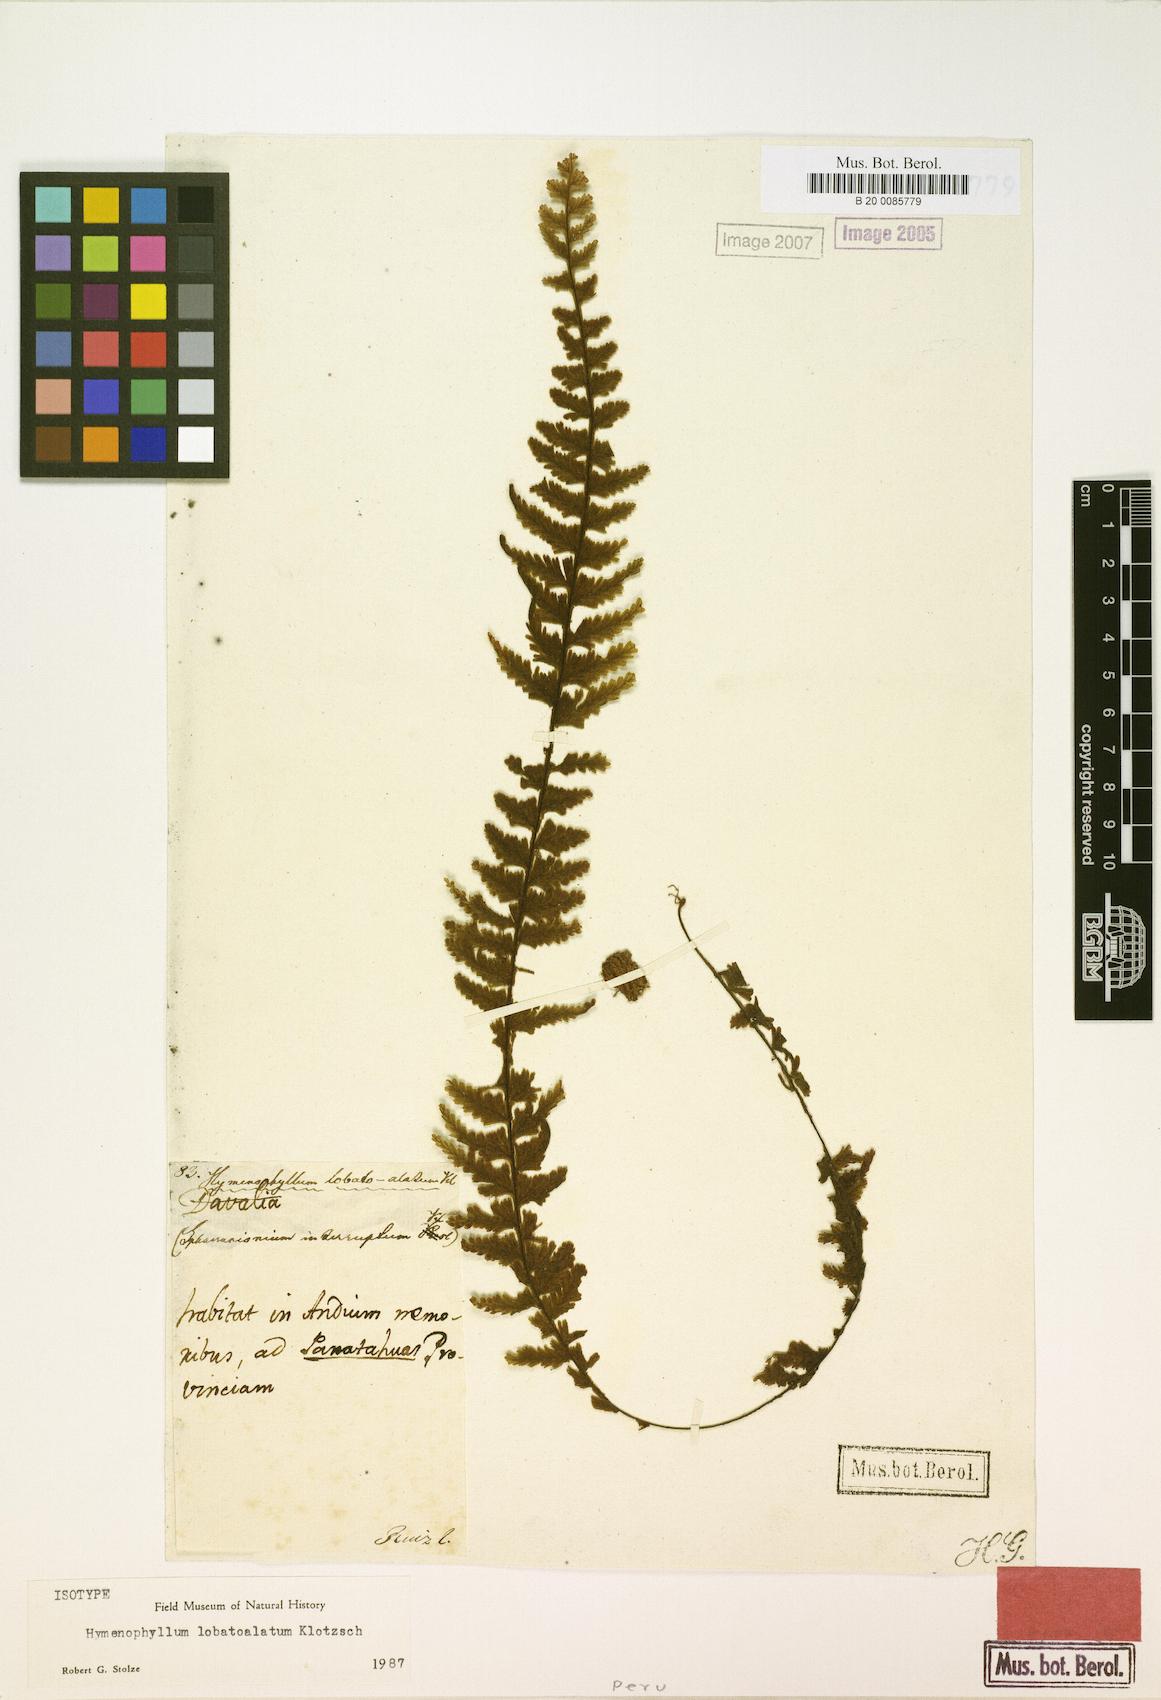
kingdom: Plantae
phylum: Tracheophyta
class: Polypodiopsida
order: Hymenophyllales
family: Hymenophyllaceae
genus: Hymenophyllum
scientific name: Hymenophyllum lobatoalatum
